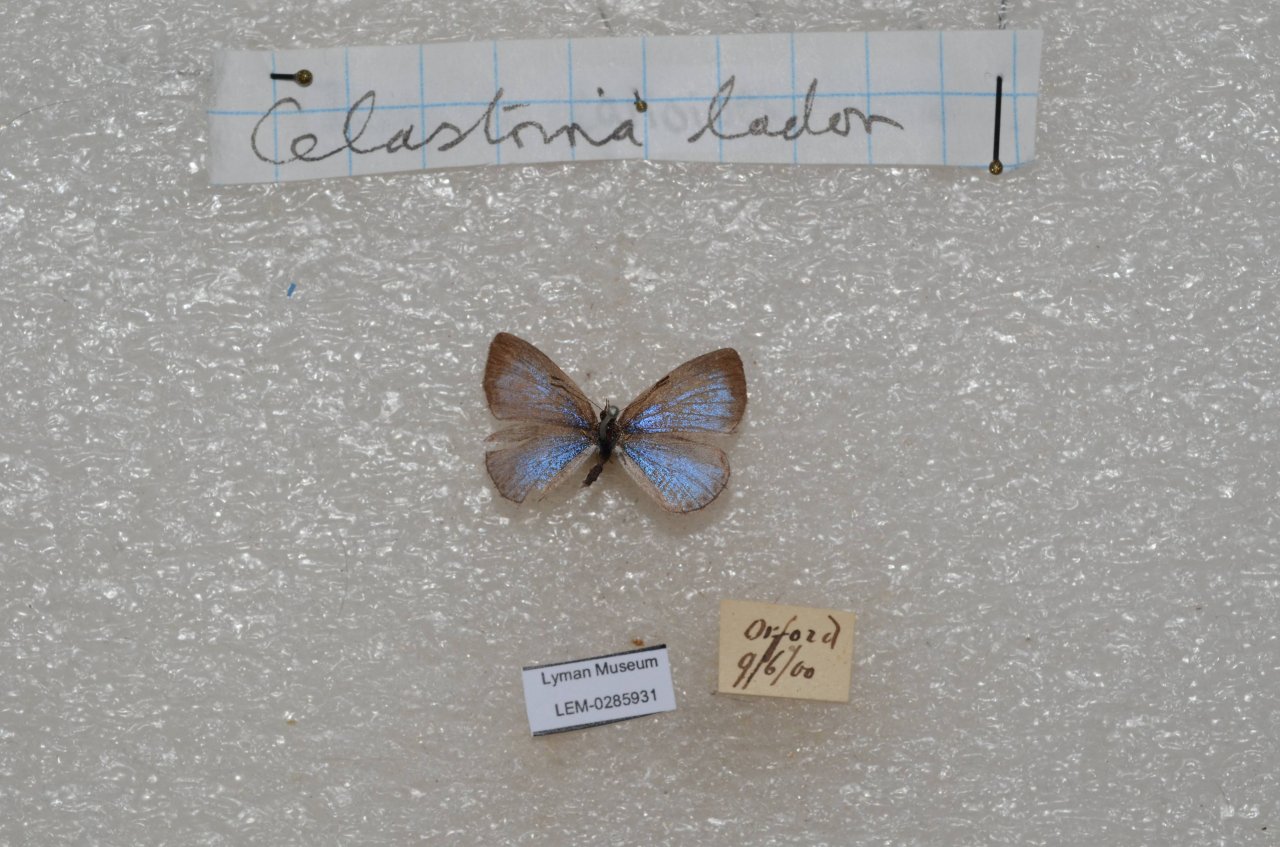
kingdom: Animalia
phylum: Arthropoda
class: Insecta
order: Lepidoptera
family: Lycaenidae
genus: Celastrina
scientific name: Celastrina
